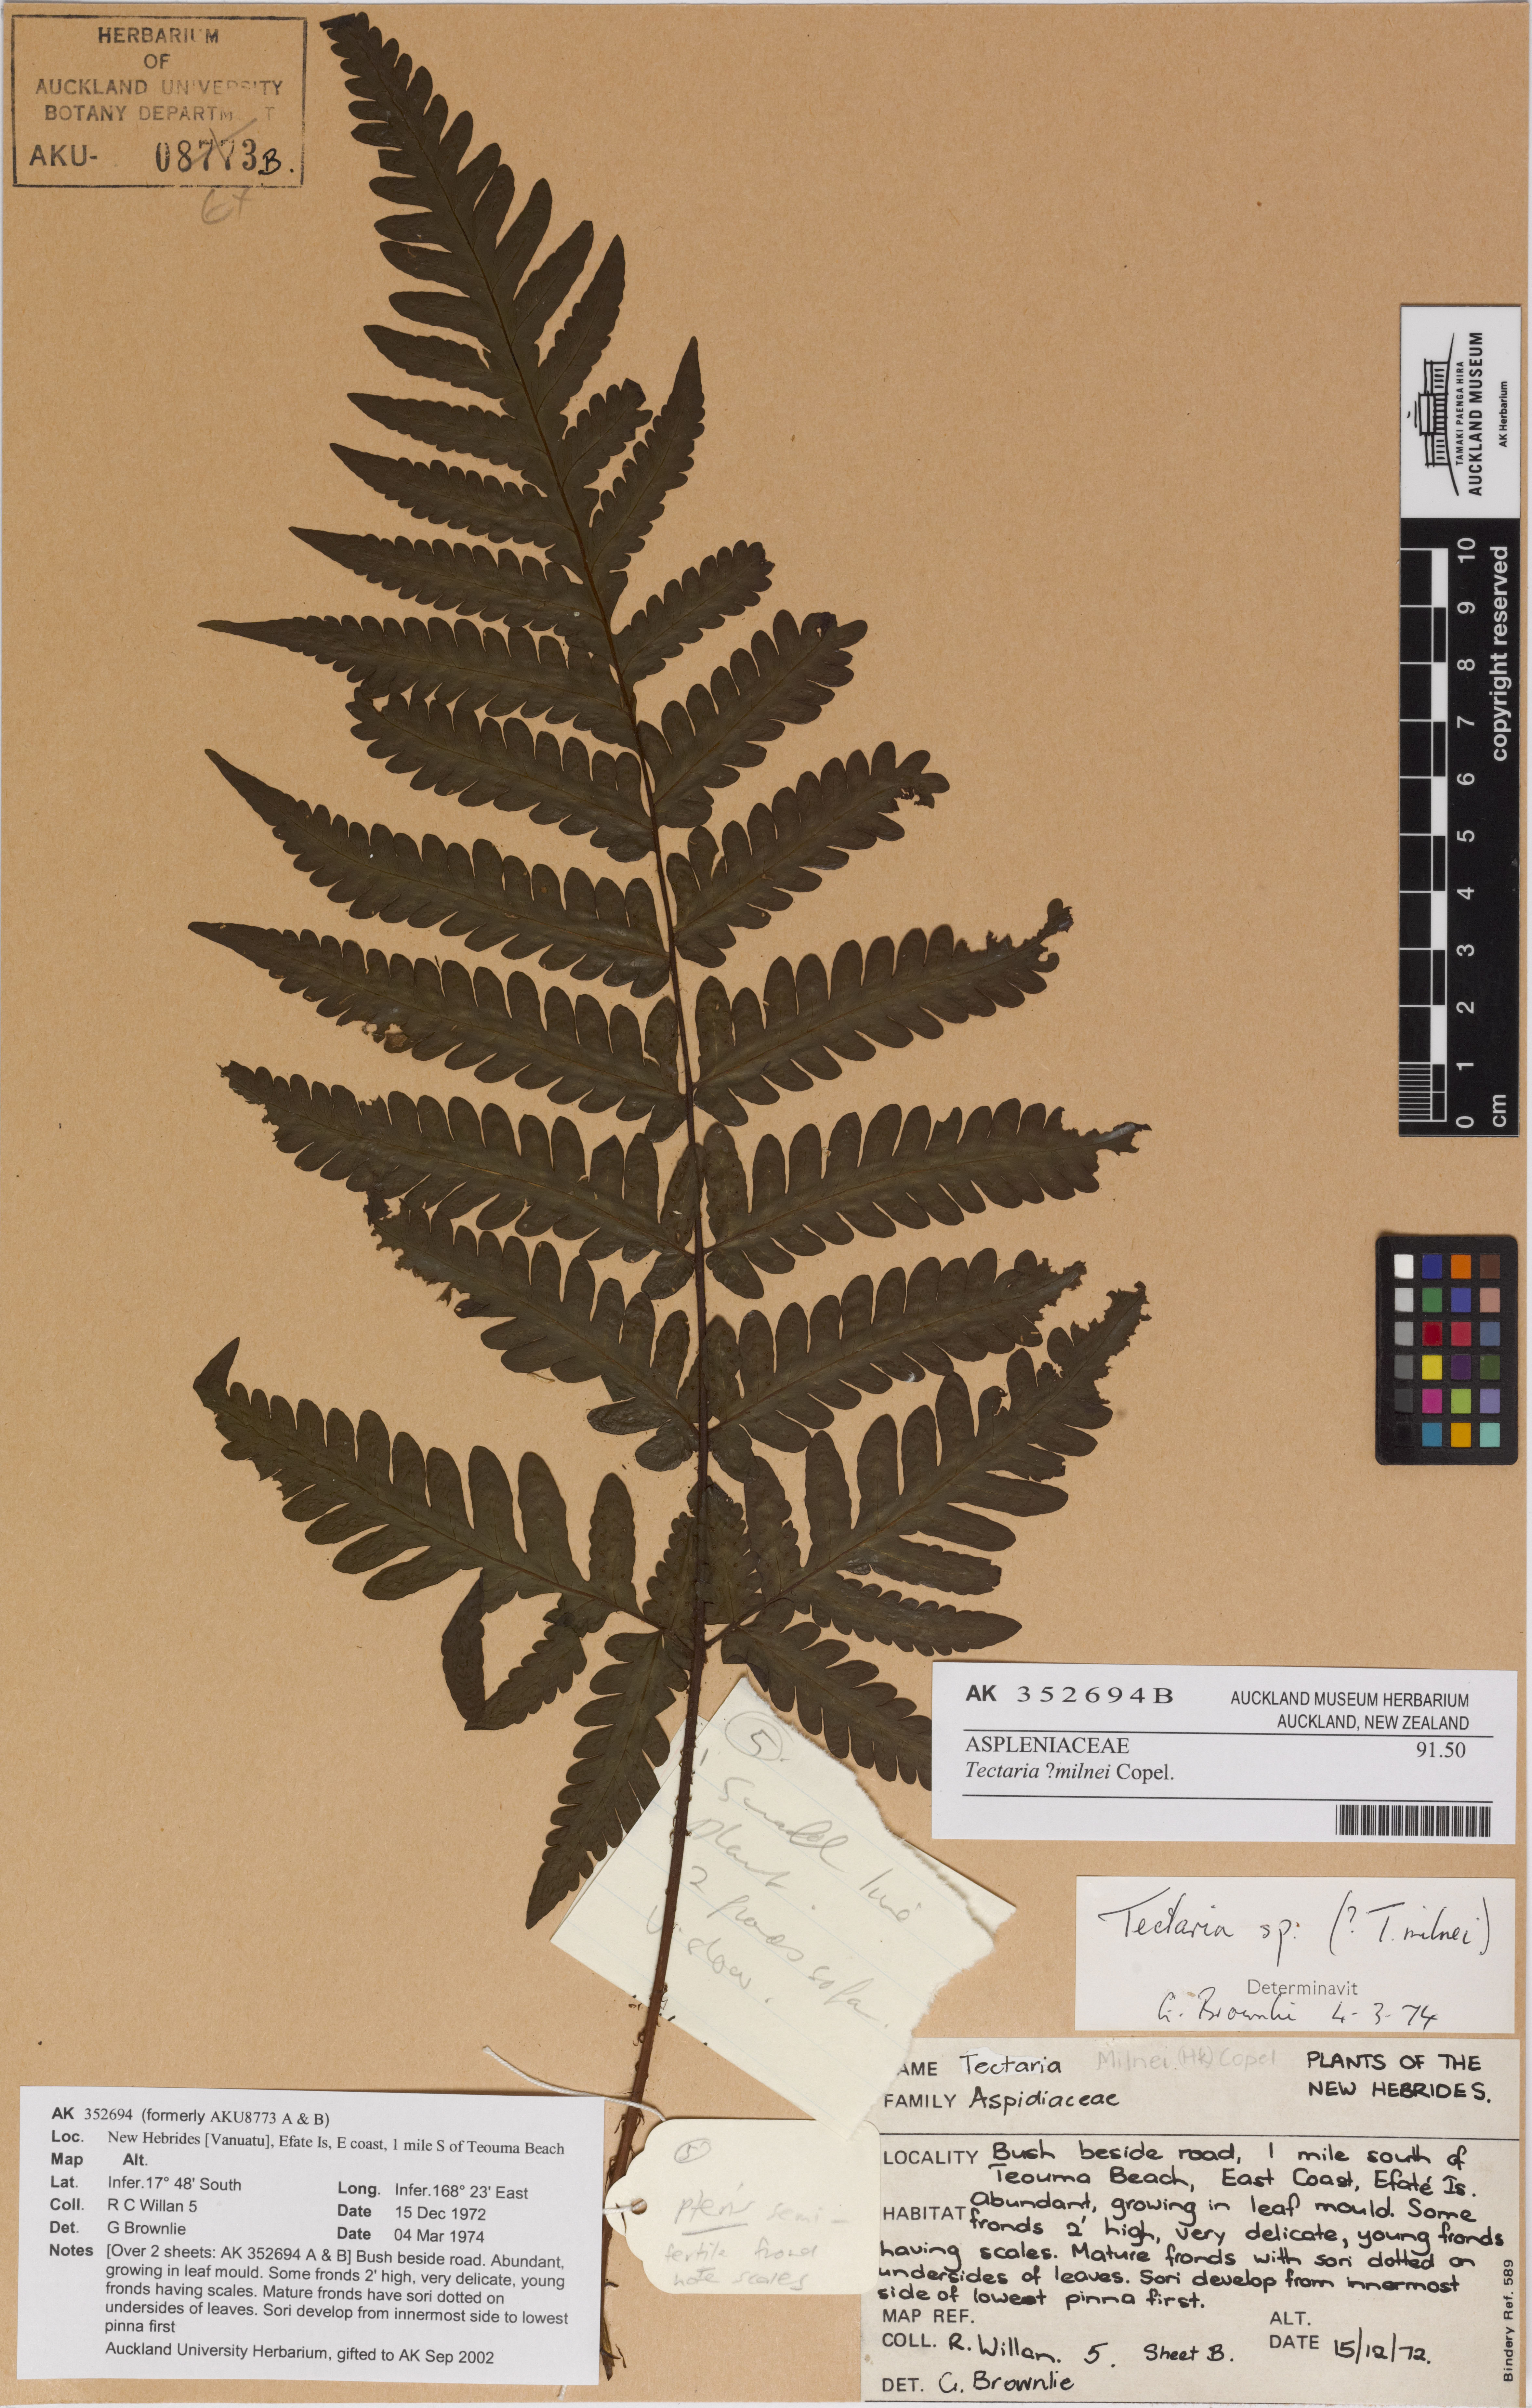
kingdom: Plantae
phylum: Tracheophyta
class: Polypodiopsida
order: Polypodiales
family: Tectariaceae
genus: Tectaria
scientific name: Tectaria hookeri
